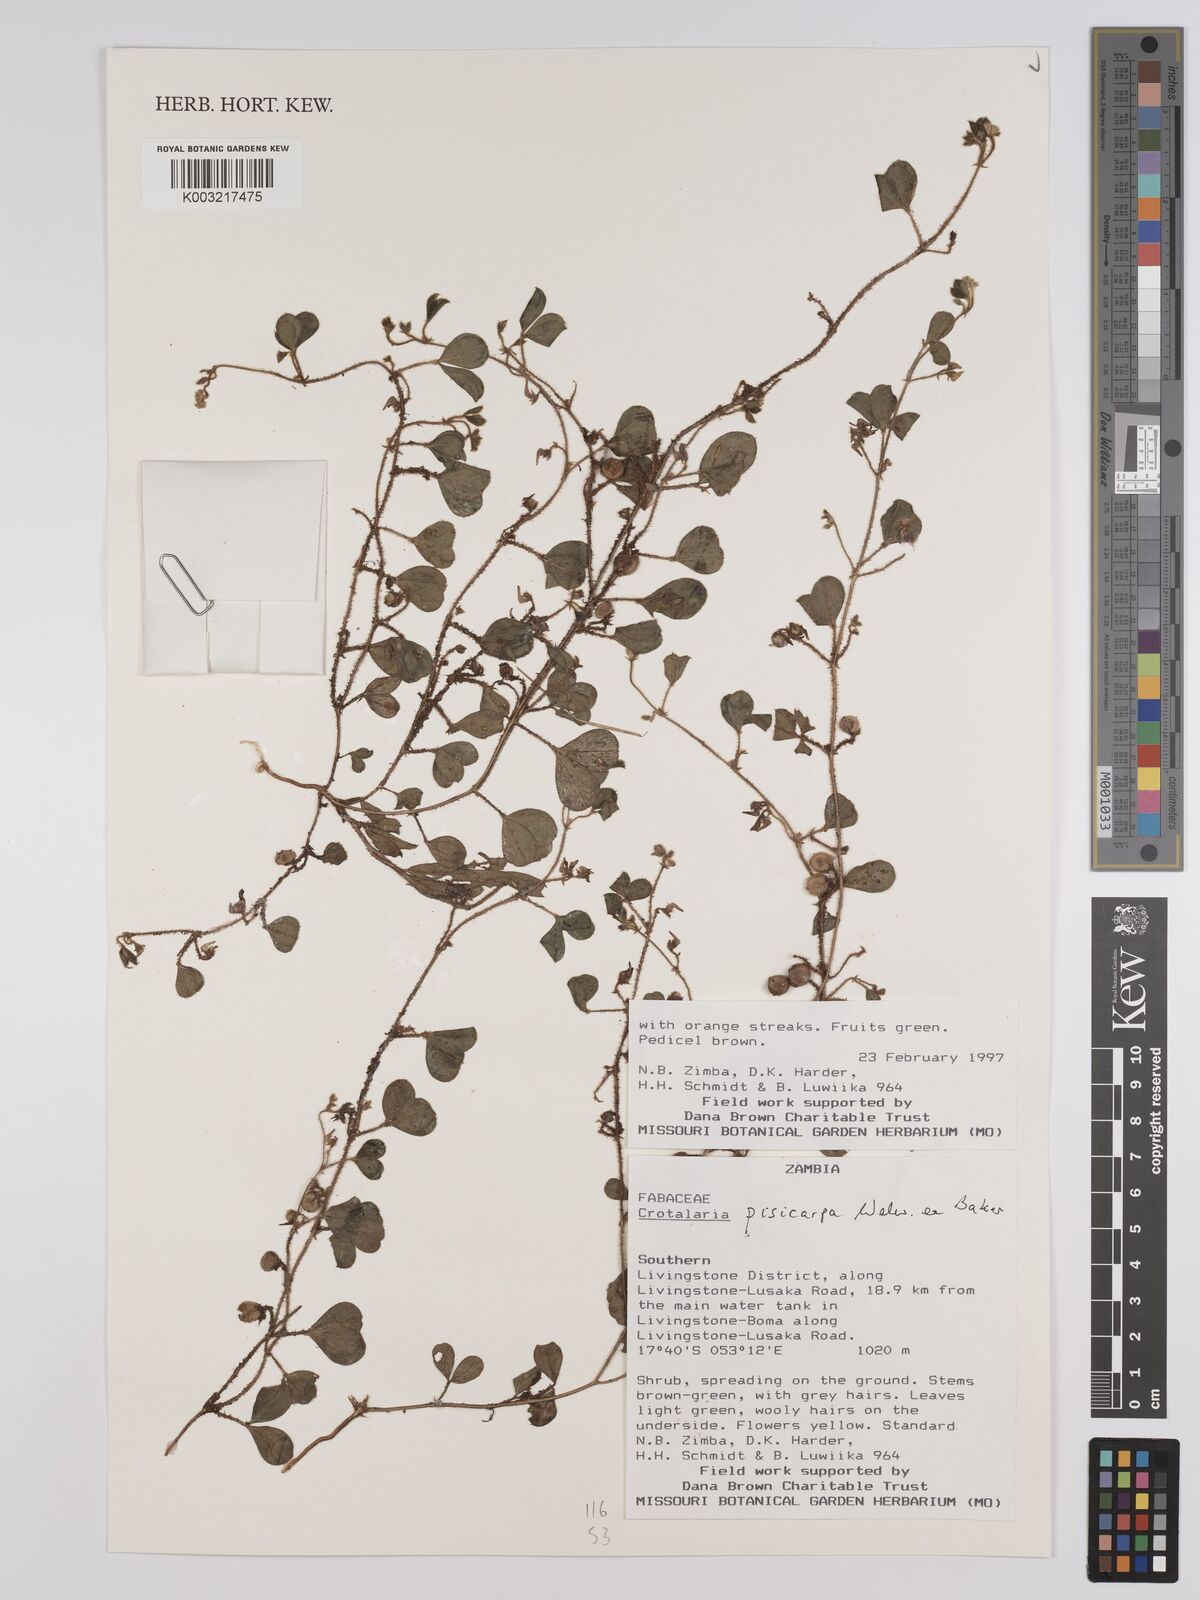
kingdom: Plantae
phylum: Tracheophyta
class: Magnoliopsida
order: Fabales
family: Fabaceae
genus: Crotalaria
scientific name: Crotalaria pisicarpa
